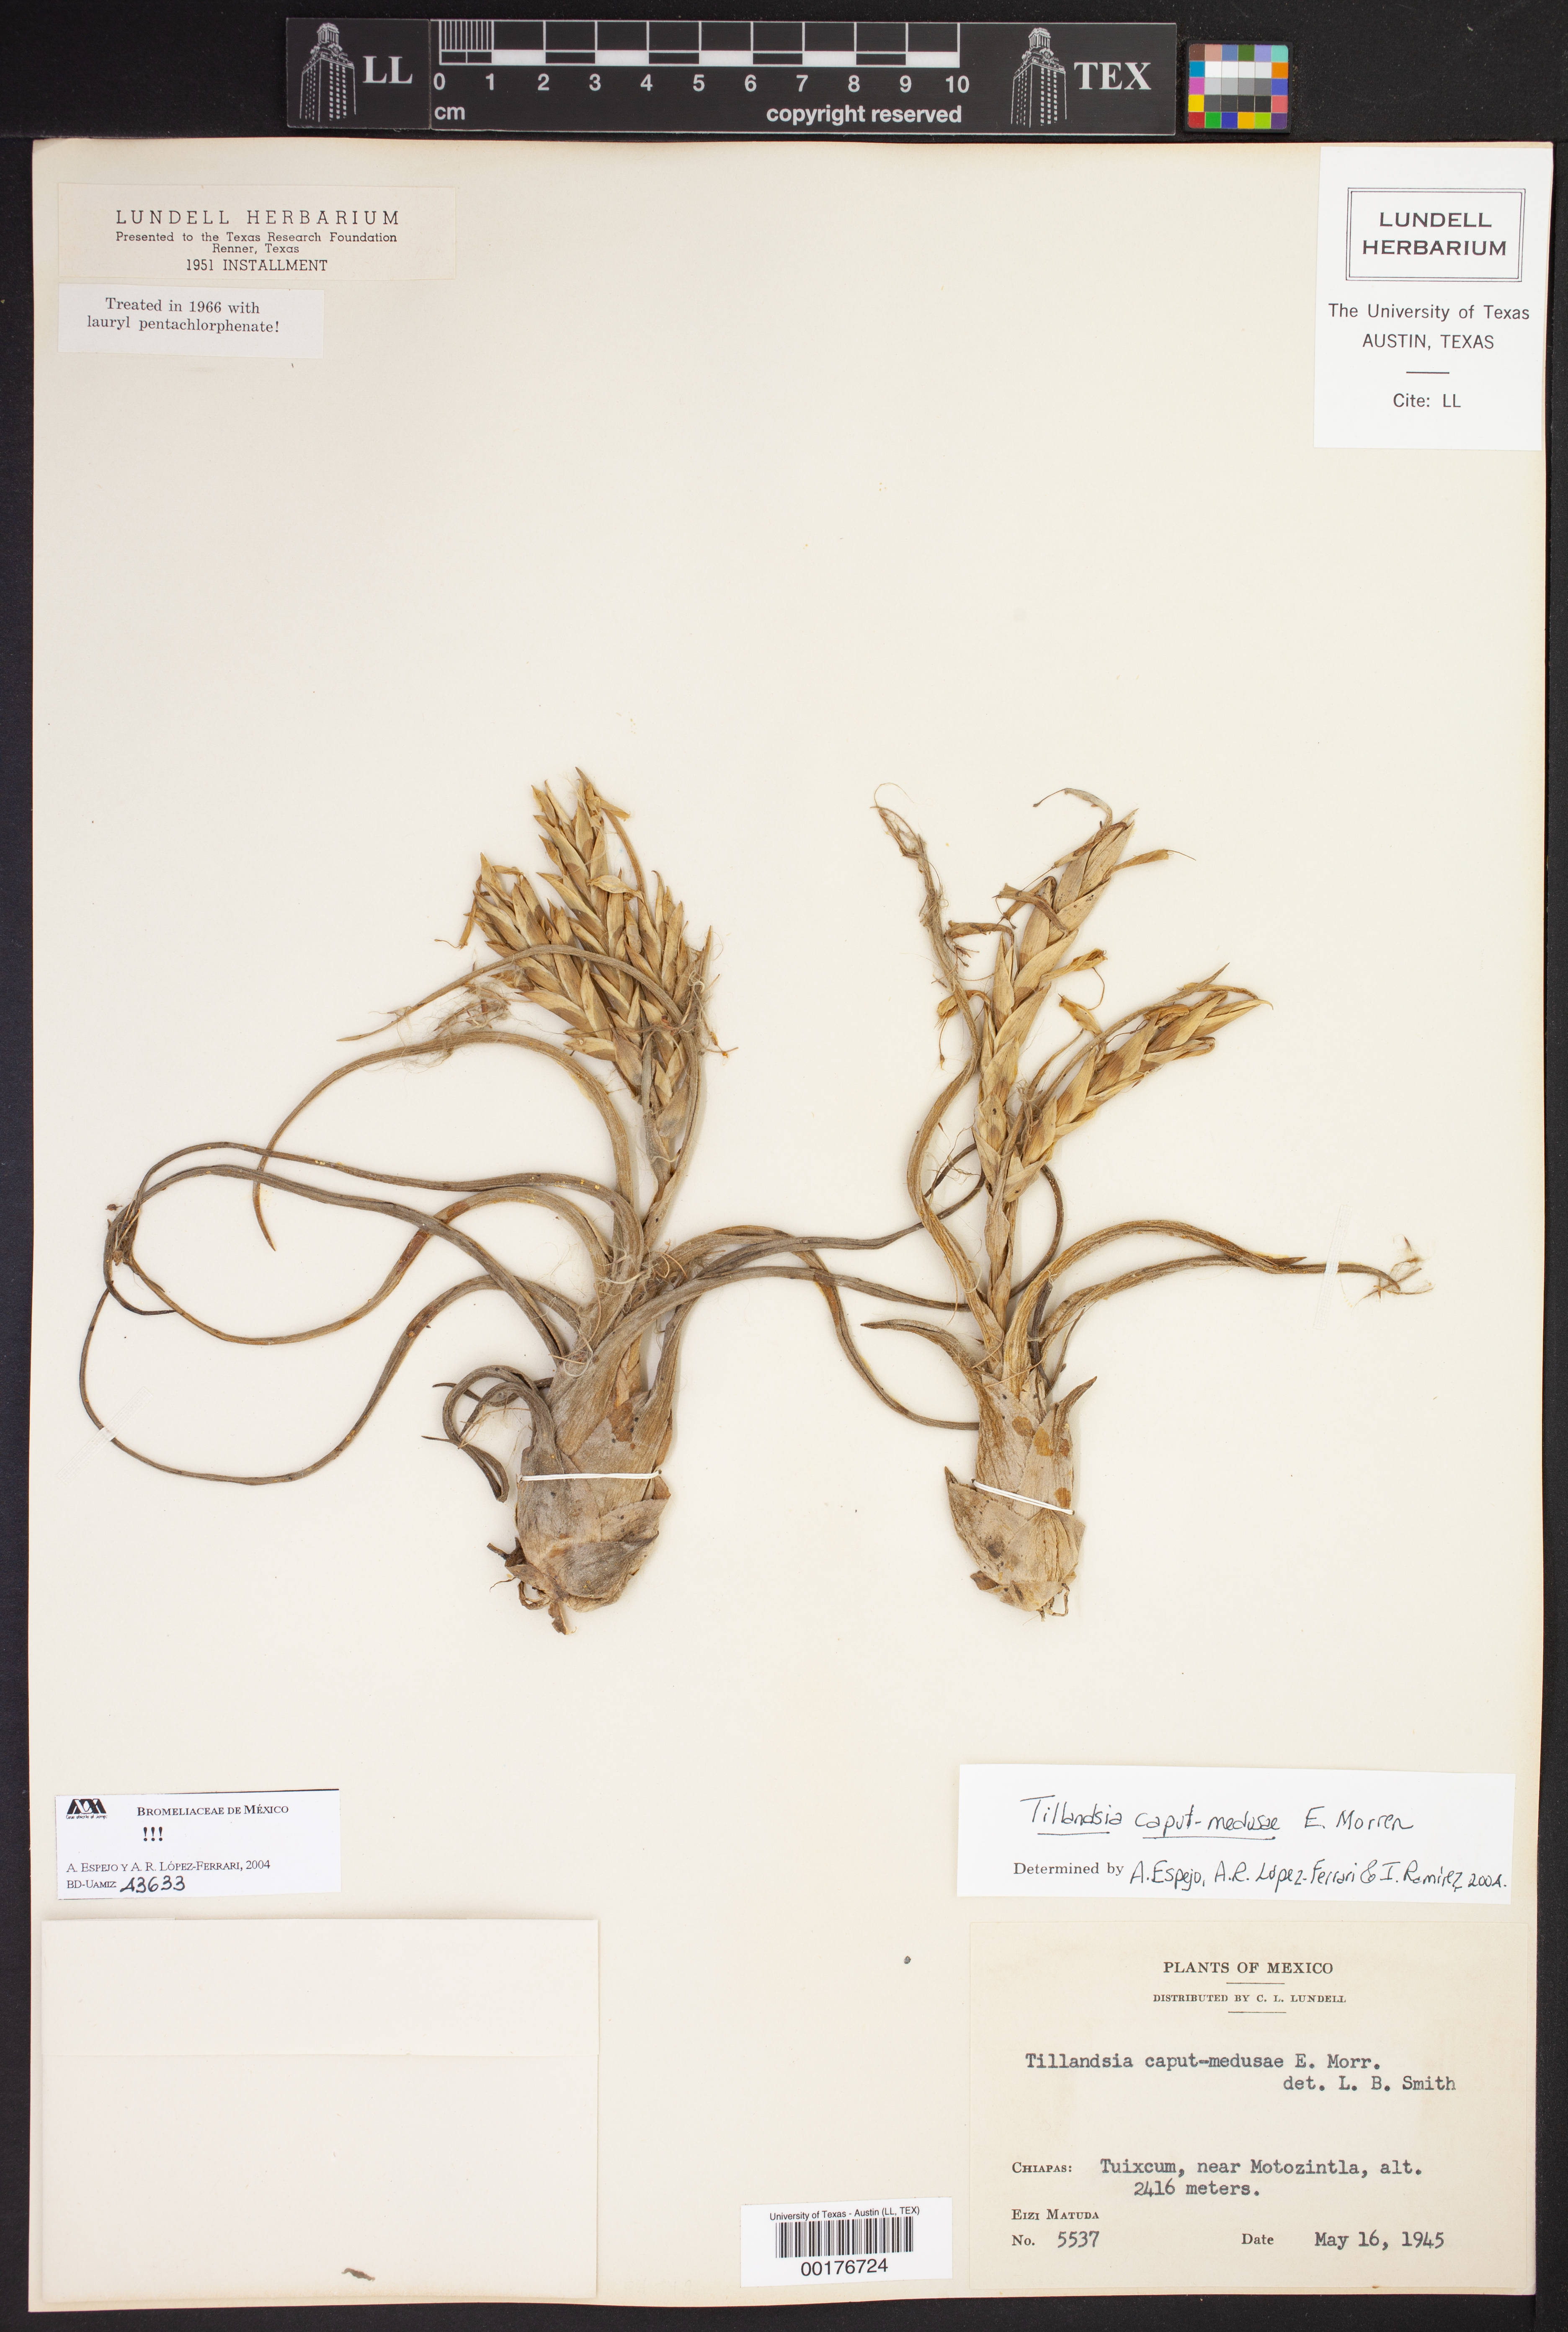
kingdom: Plantae
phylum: Tracheophyta
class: Liliopsida
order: Poales
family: Bromeliaceae
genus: Tillandsia
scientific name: Tillandsia caput-medusae
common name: Octopus plant
